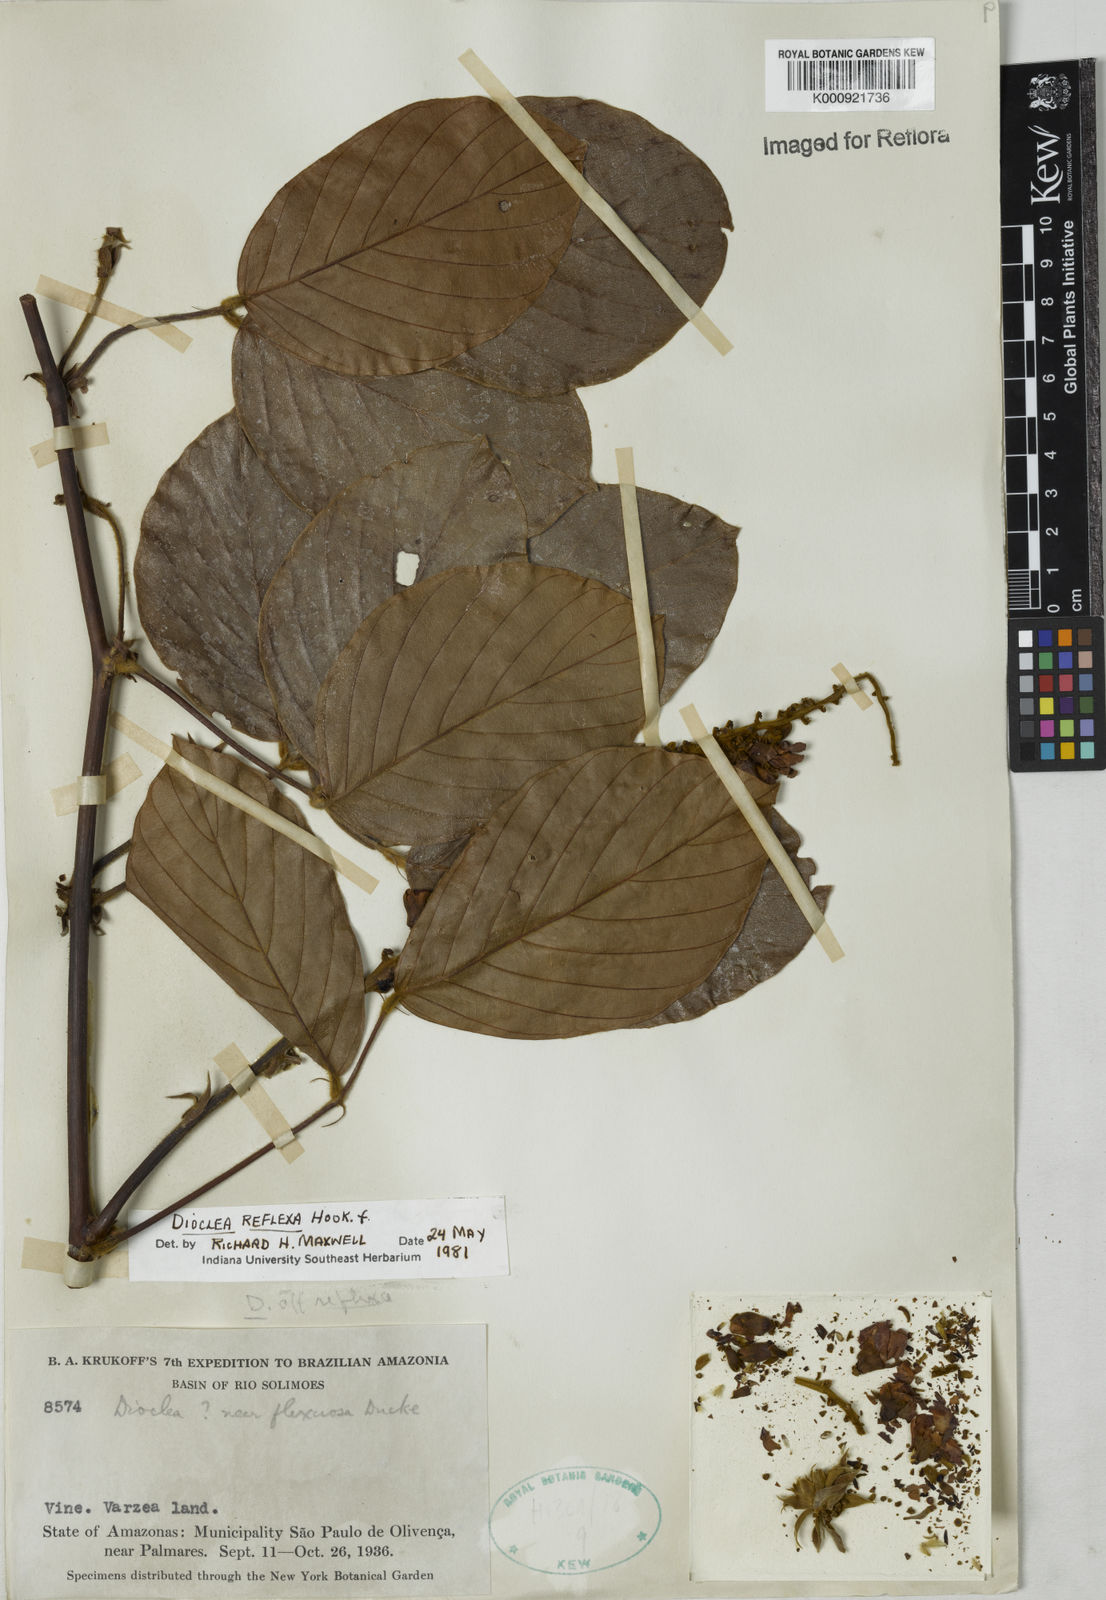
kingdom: Plantae
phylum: Tracheophyta
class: Magnoliopsida
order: Fabales
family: Fabaceae
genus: Macropsychanthus
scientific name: Macropsychanthus comosus
